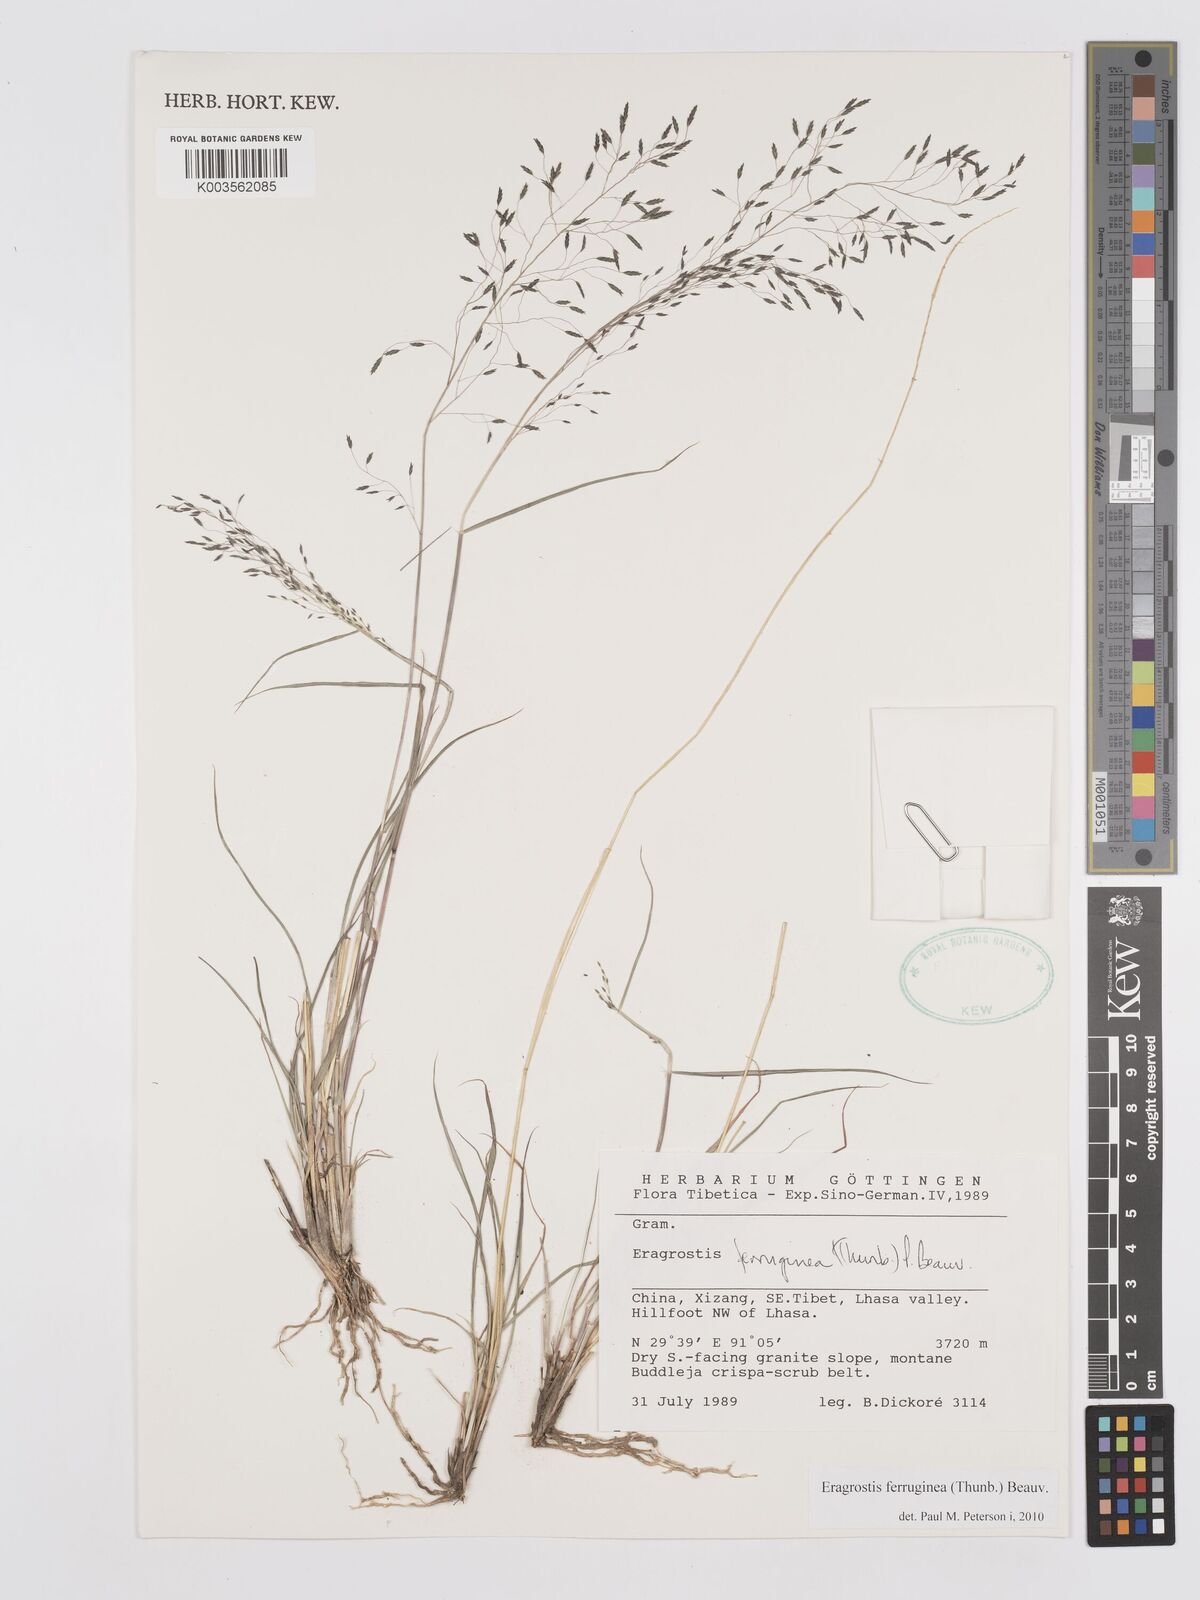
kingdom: Plantae
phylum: Tracheophyta
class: Liliopsida
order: Poales
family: Poaceae
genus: Eragrostis
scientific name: Eragrostis ferruginea
